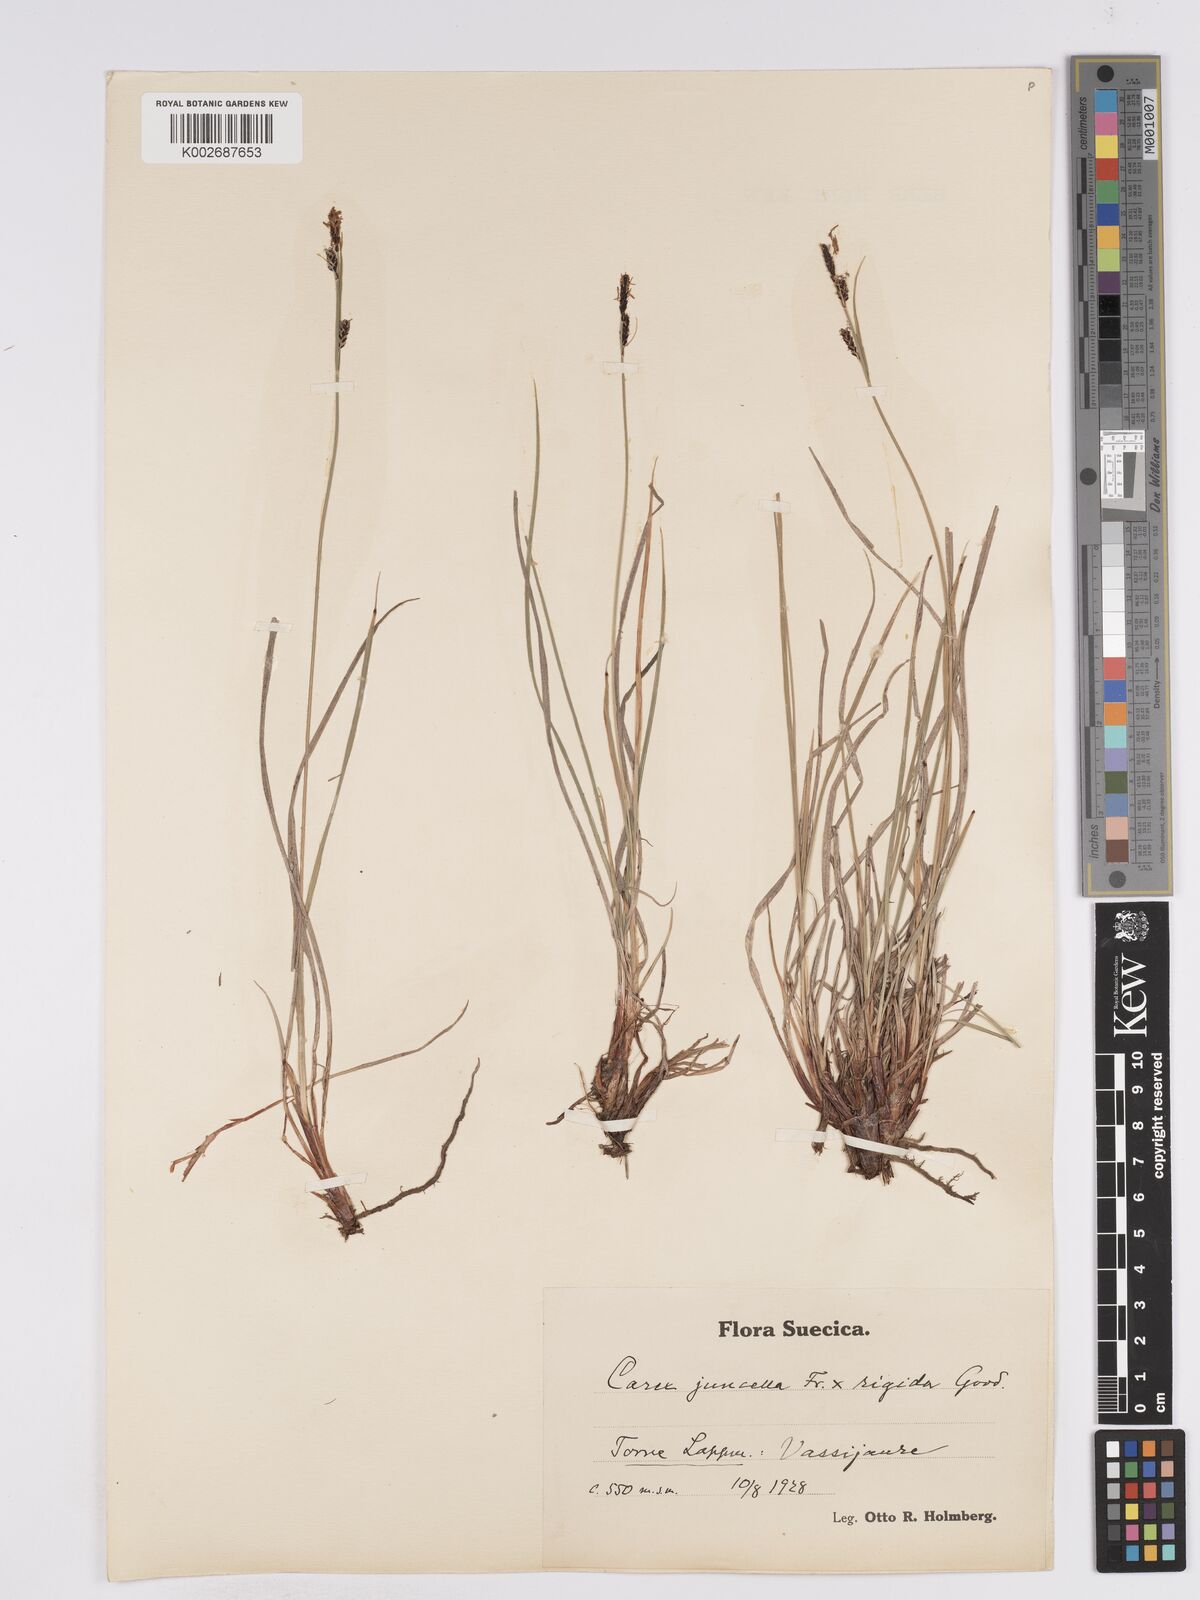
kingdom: Plantae
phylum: Tracheophyta
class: Liliopsida
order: Poales
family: Cyperaceae
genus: Carex
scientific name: Carex
